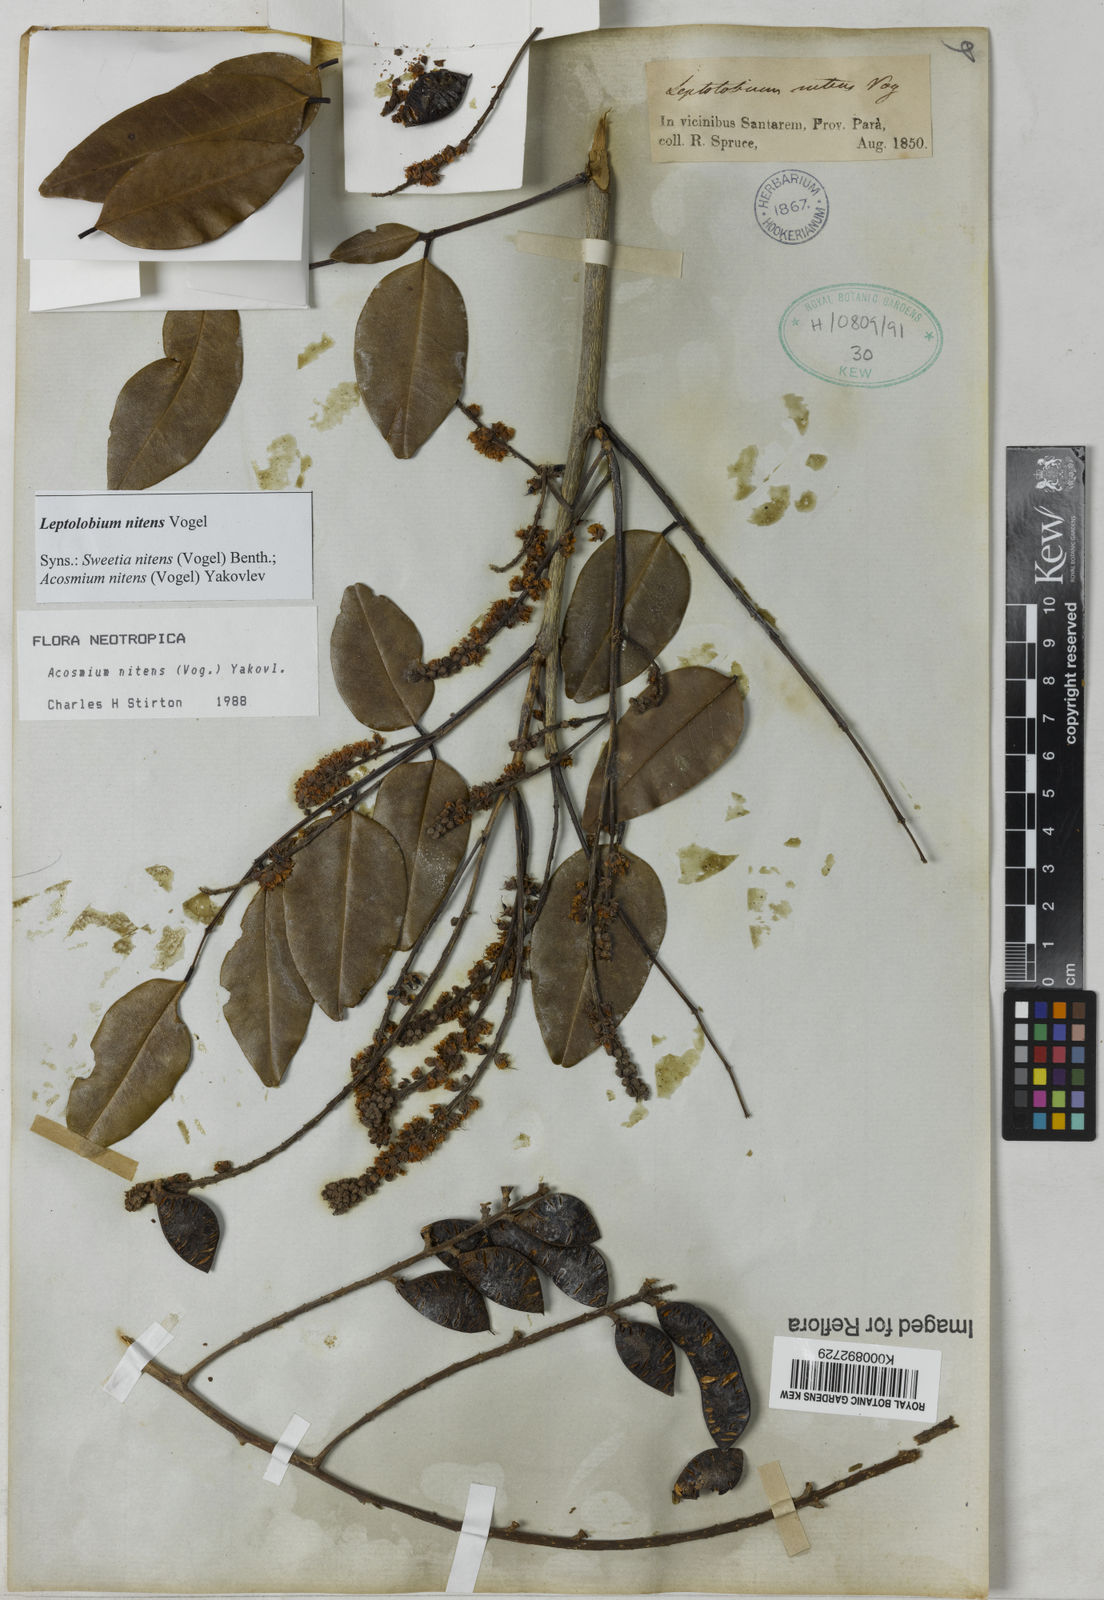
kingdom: Plantae
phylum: Tracheophyta
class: Magnoliopsida
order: Fabales
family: Fabaceae
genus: Leptolobium
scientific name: Leptolobium nitens
